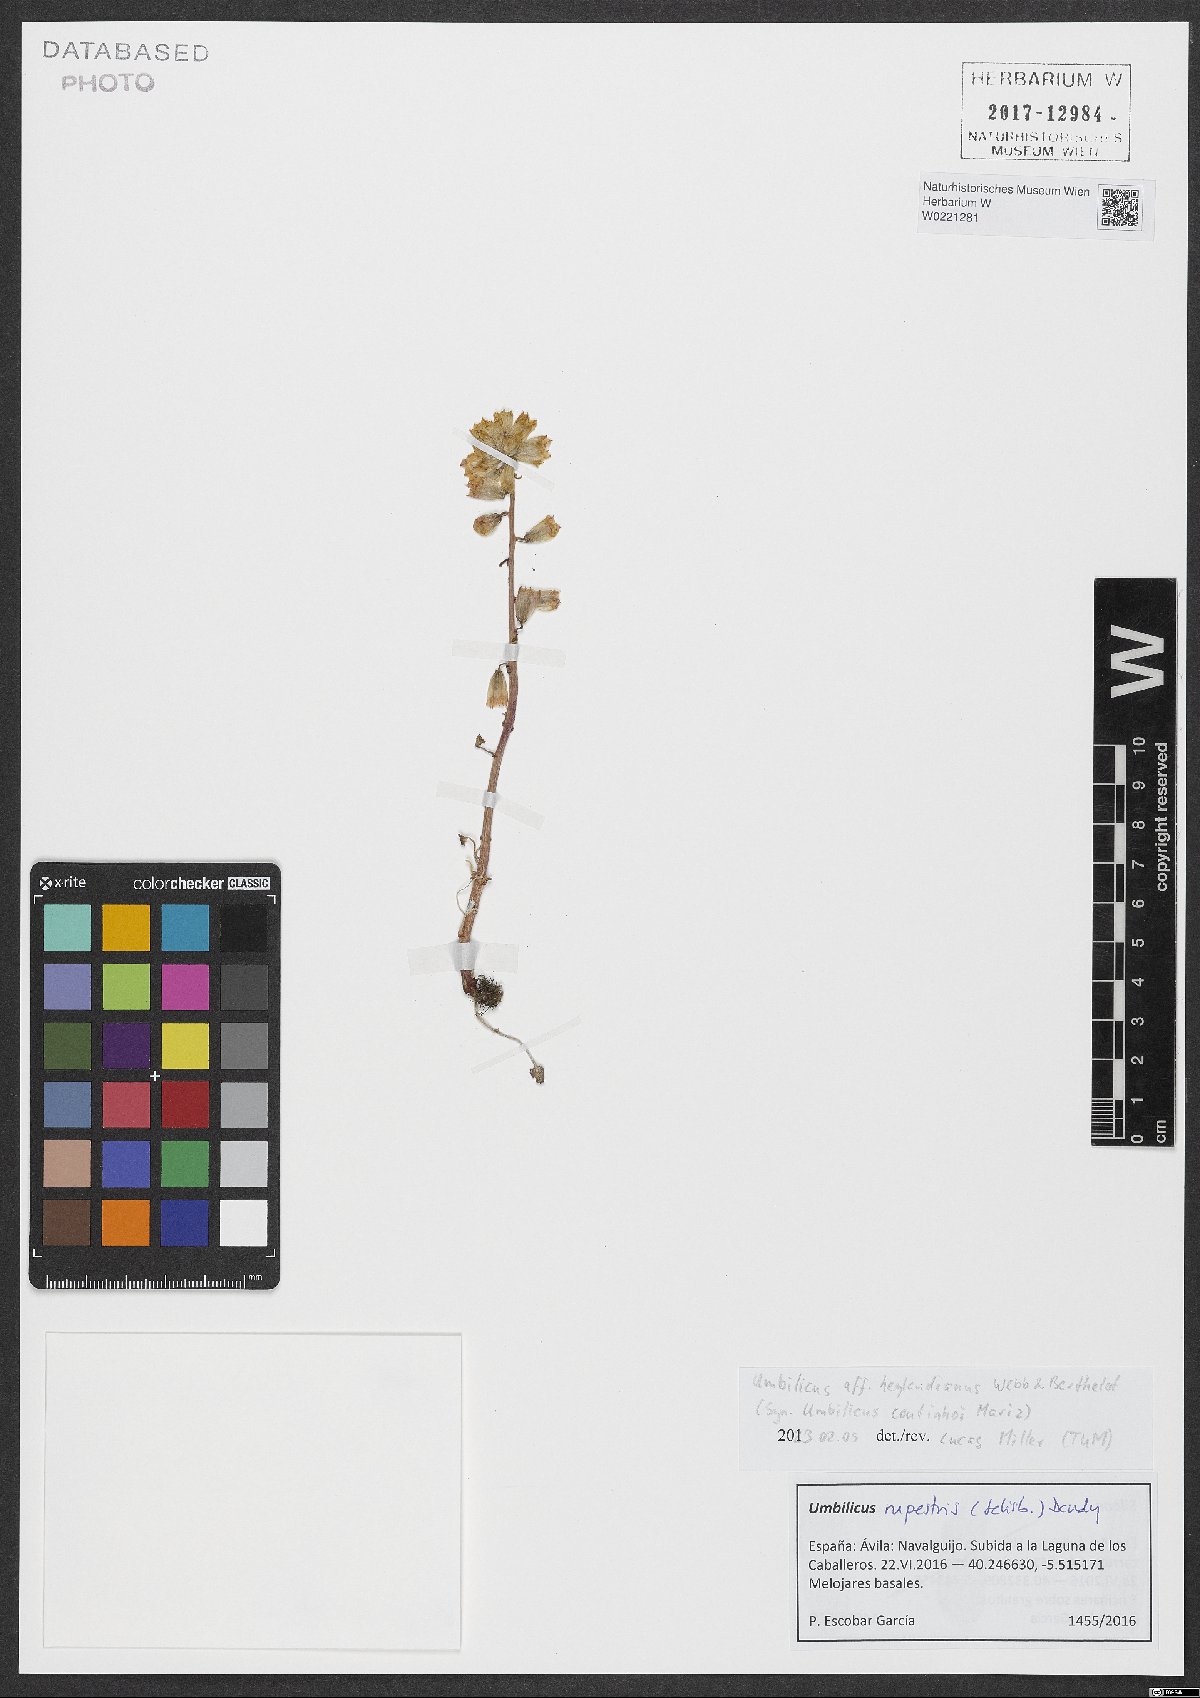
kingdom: Plantae
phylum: Tracheophyta
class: Magnoliopsida
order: Saxifragales
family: Crassulaceae
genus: Umbilicus
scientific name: Umbilicus heylandianus
